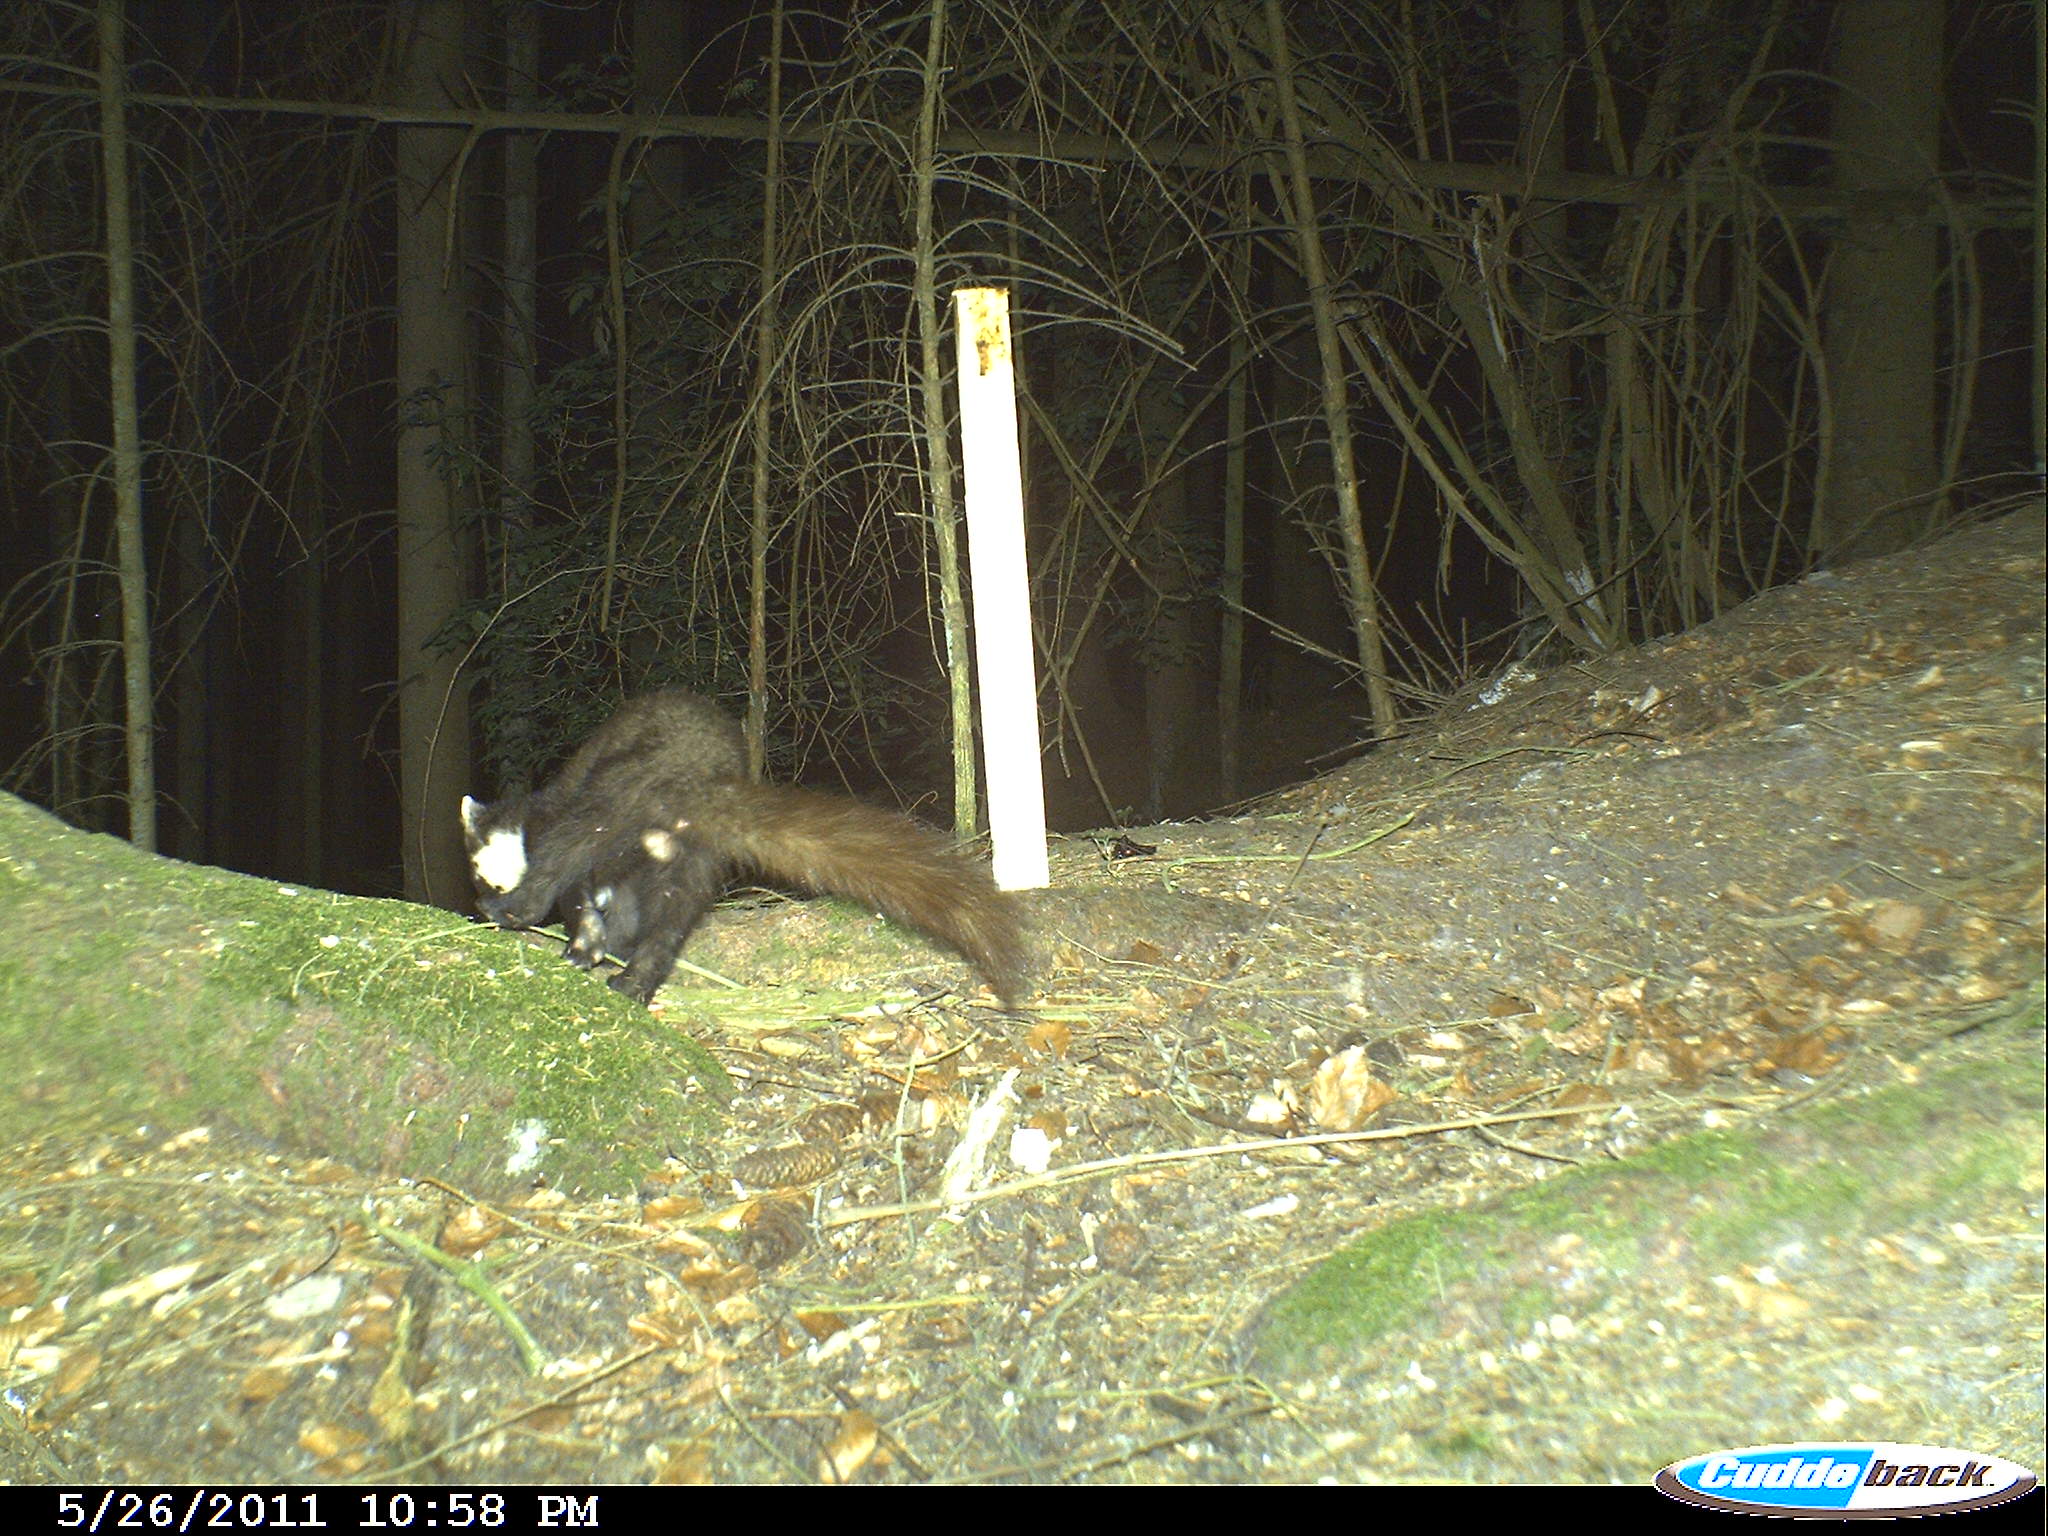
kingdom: Animalia
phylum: Chordata
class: Mammalia
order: Carnivora
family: Mustelidae
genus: Martes
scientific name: Martes martes
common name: European pine marten
